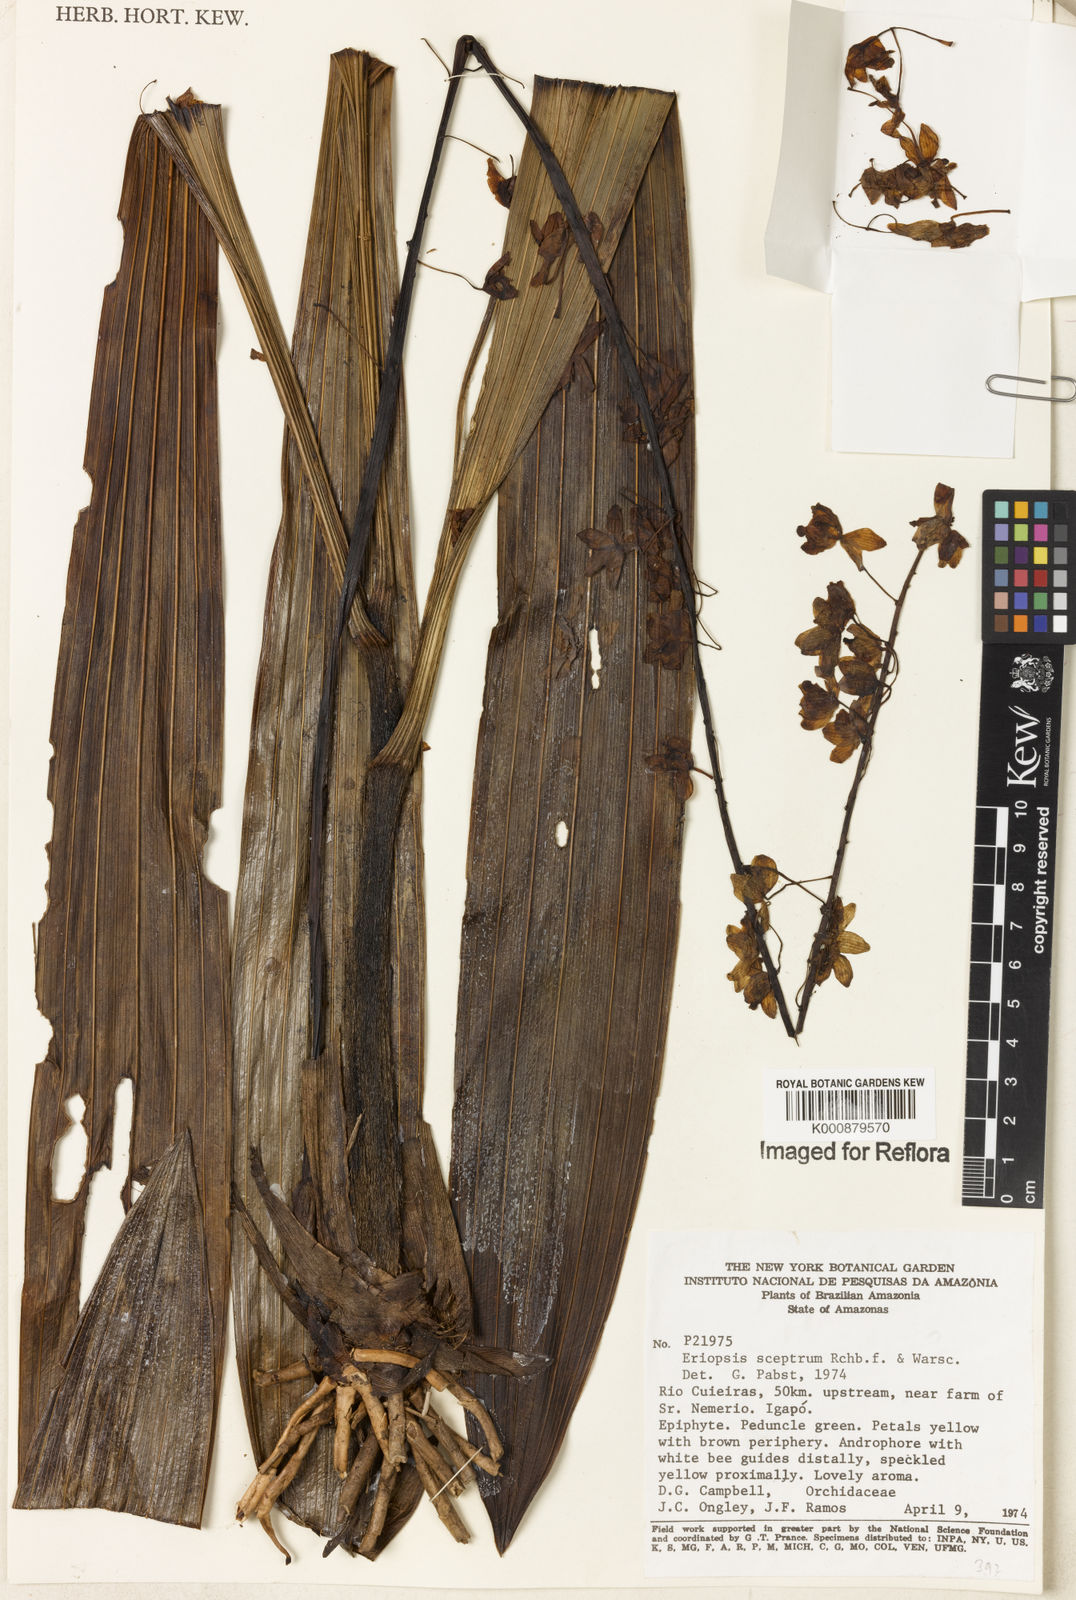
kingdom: Plantae
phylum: Tracheophyta
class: Liliopsida
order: Asparagales
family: Orchidaceae
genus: Eriopsis
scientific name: Eriopsis altissima
